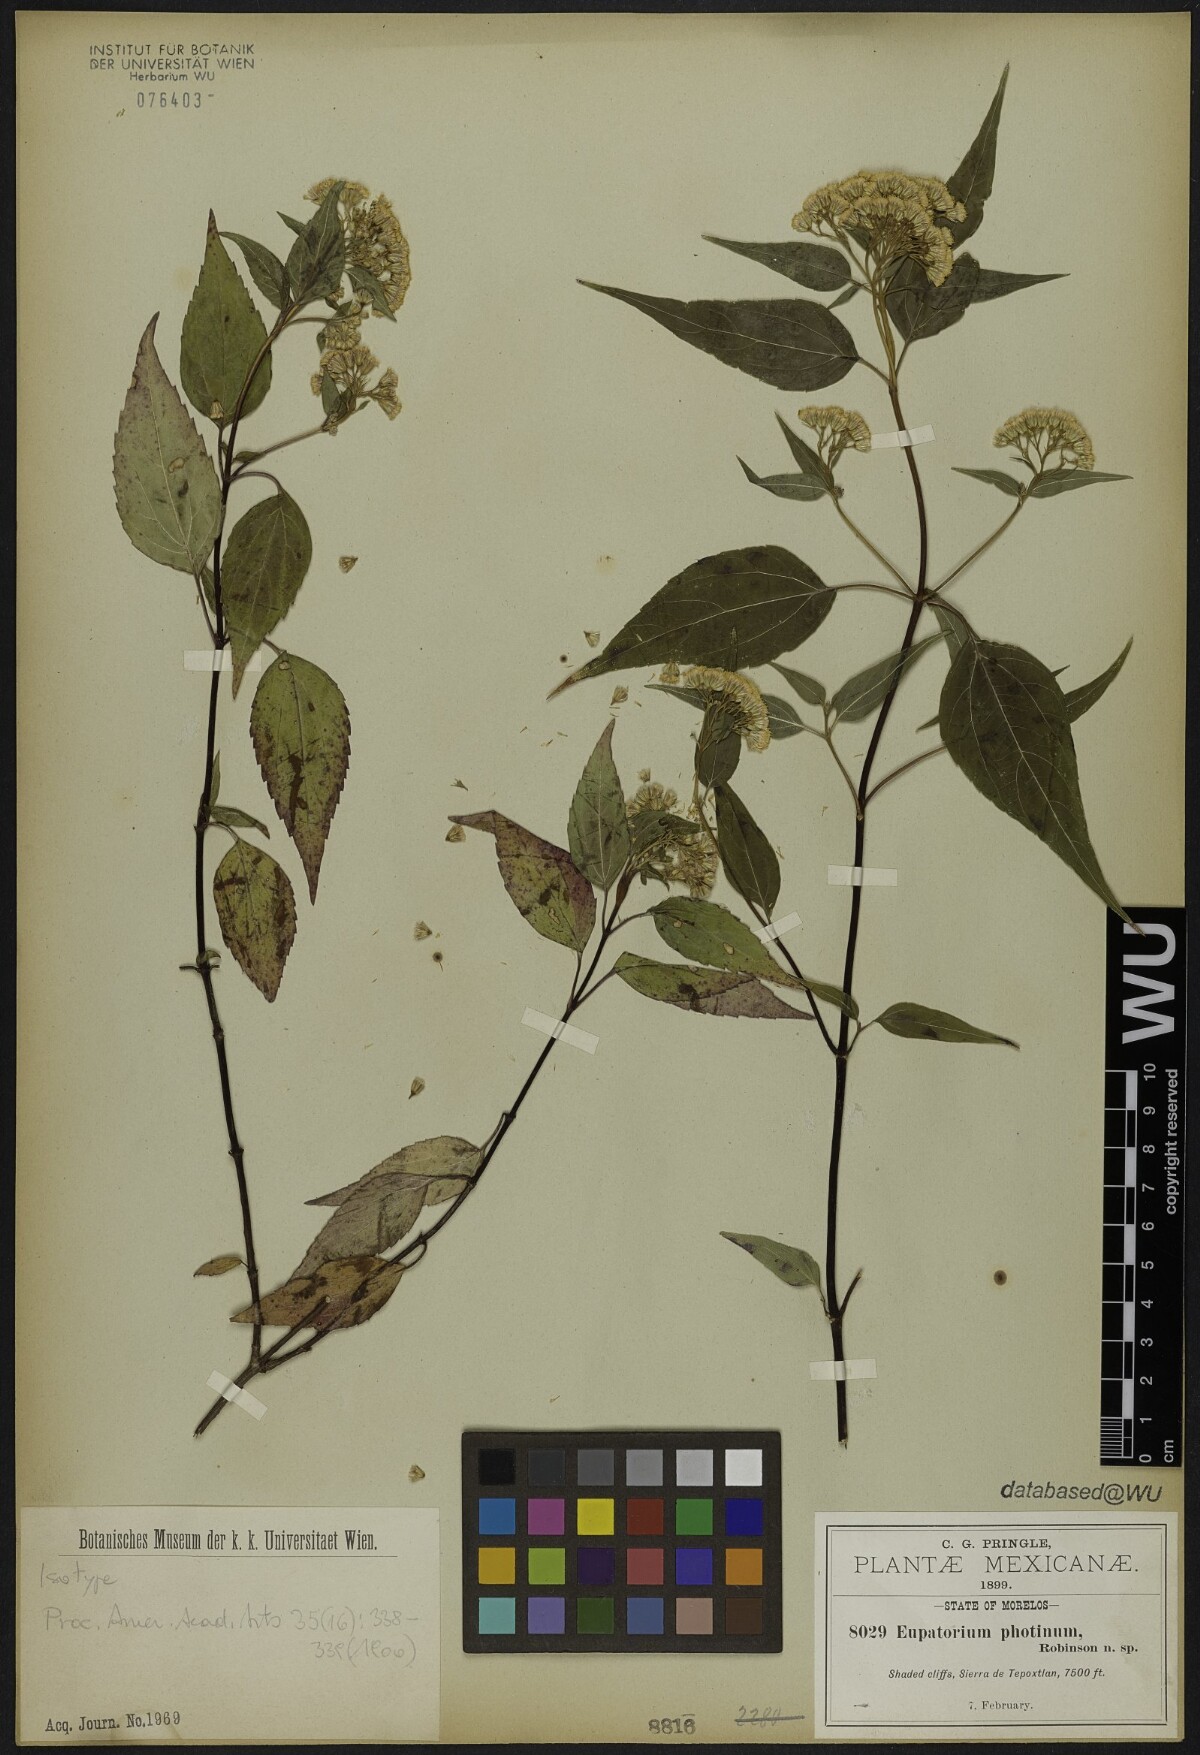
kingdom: Plantae
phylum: Tracheophyta
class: Magnoliopsida
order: Asterales
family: Asteraceae
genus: Ageratina
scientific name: Ageratina photina
